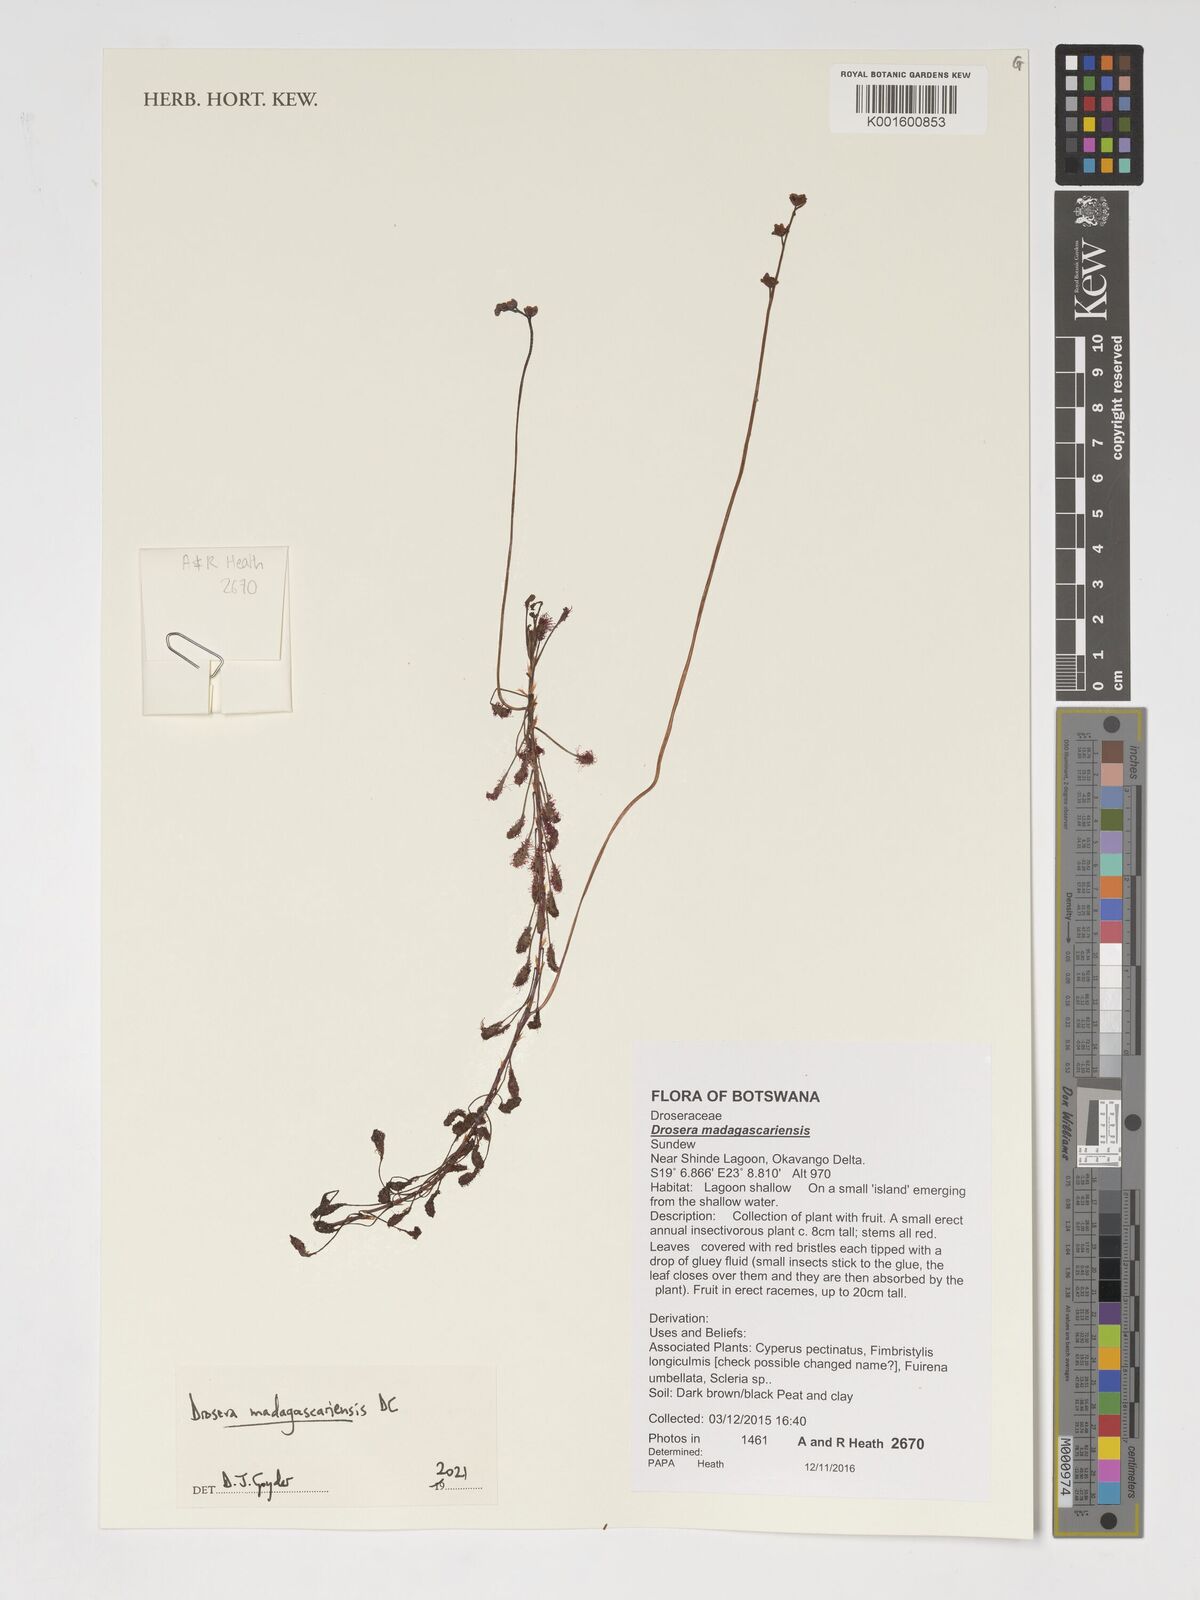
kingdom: Plantae
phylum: Tracheophyta
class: Magnoliopsida
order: Caryophyllales
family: Droseraceae
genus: Drosera
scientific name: Drosera madagascariensis
